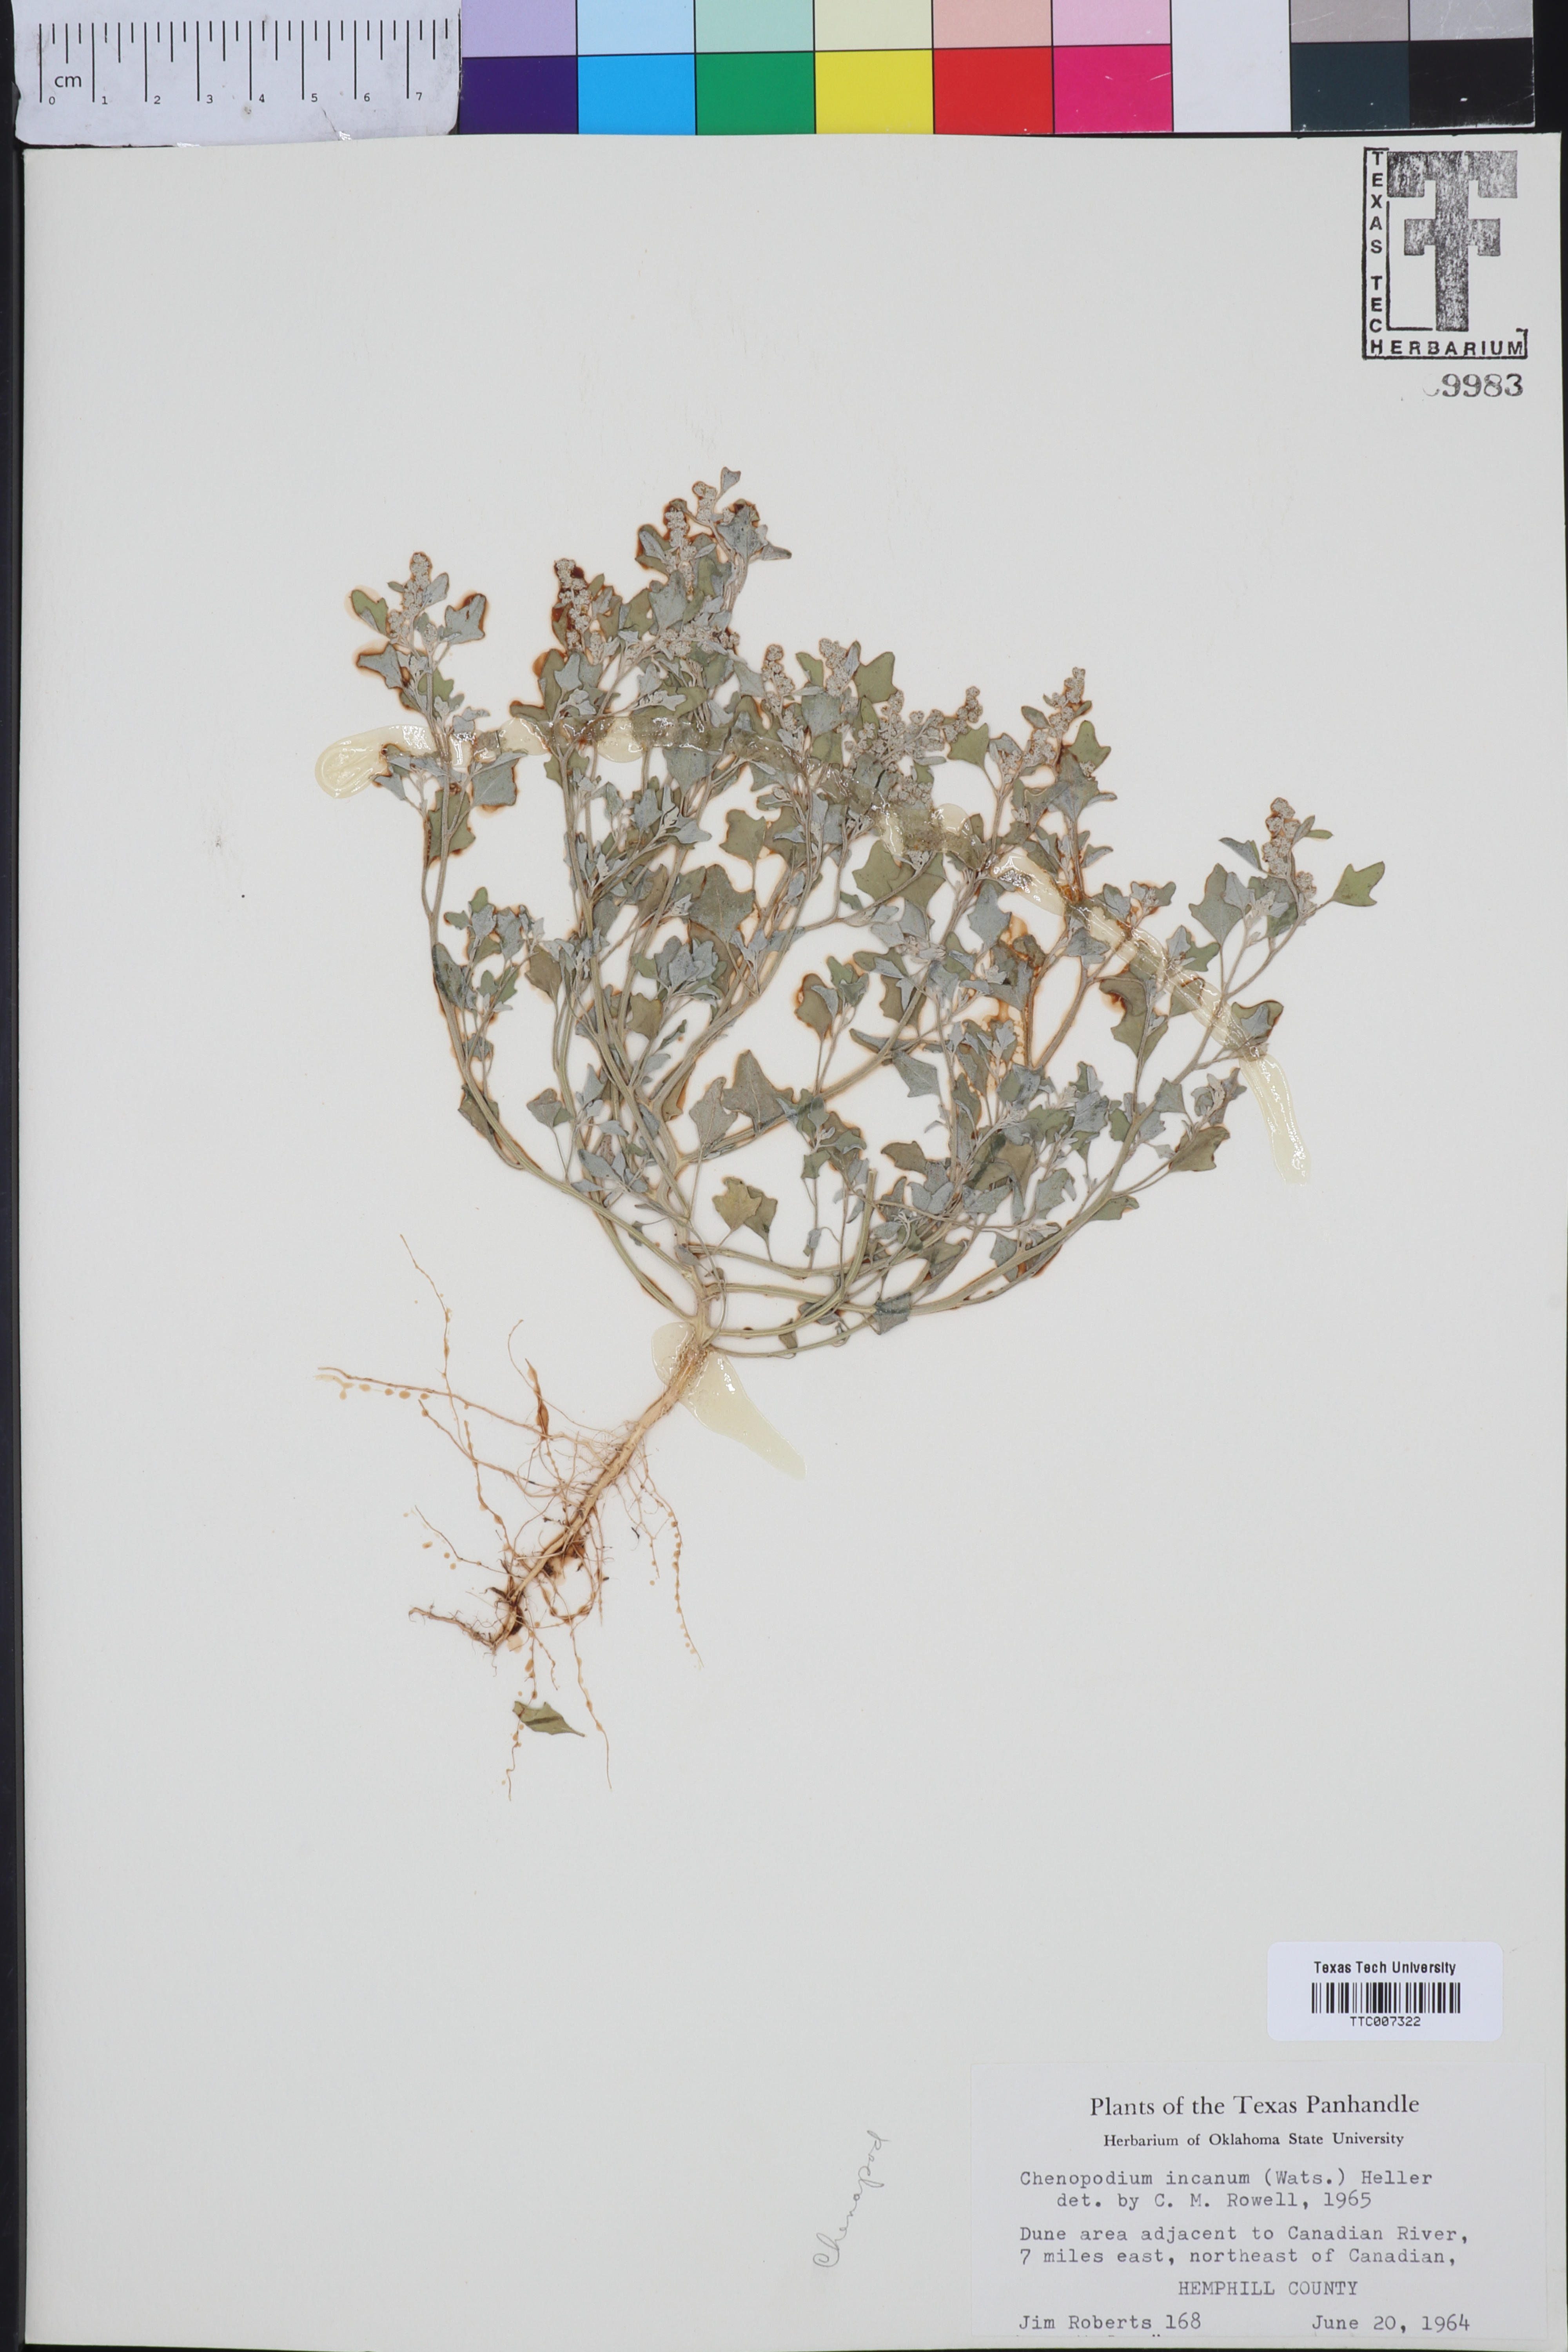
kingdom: Plantae
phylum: Tracheophyta
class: Magnoliopsida
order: Caryophyllales
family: Amaranthaceae
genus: Chenopodium
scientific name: Chenopodium incanum
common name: Hoary goosefoot
